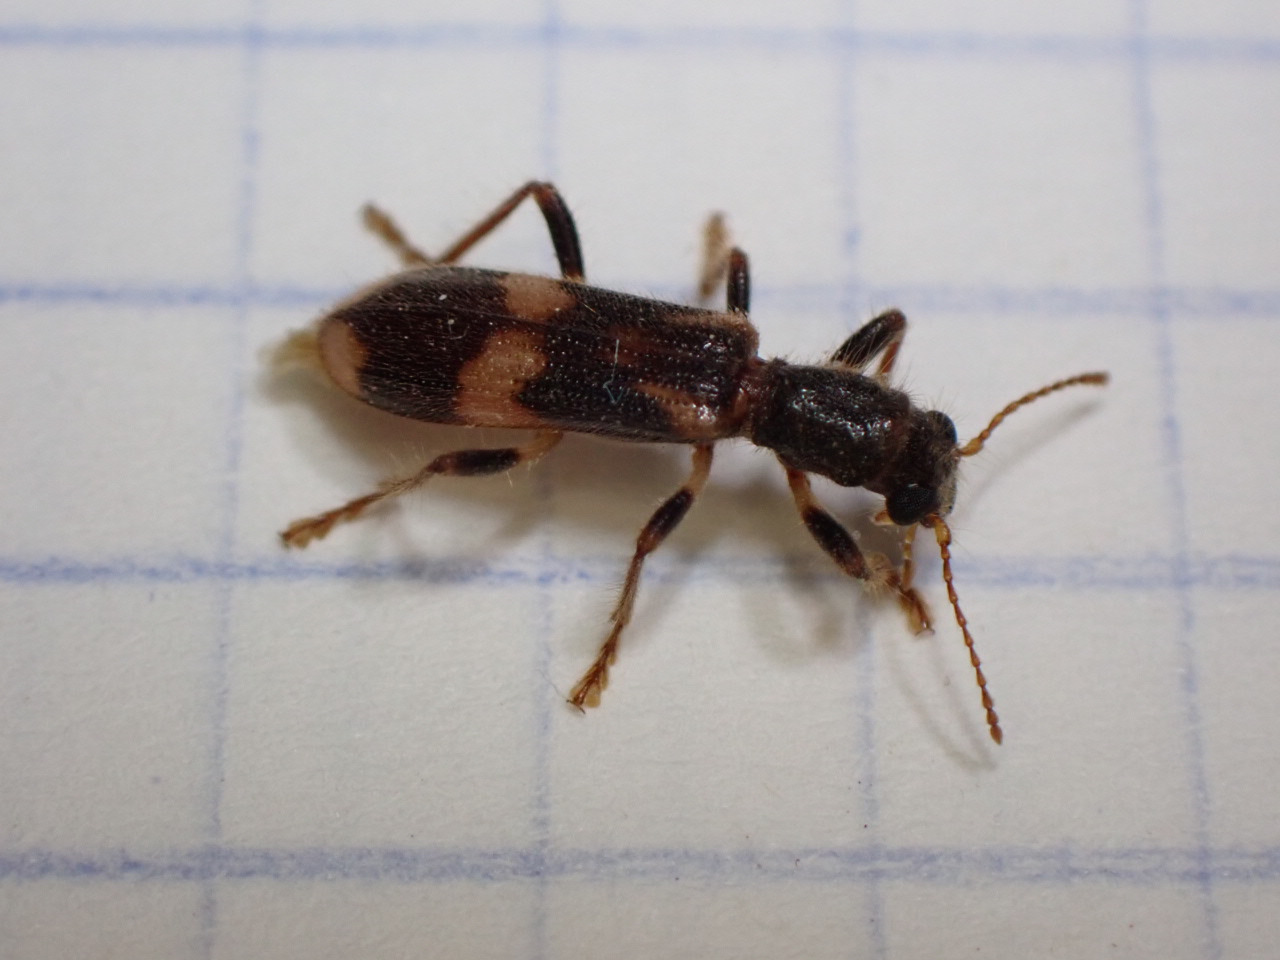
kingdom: Animalia
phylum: Arthropoda
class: Insecta
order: Coleoptera
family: Cleridae
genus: Opilo
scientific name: Opilo mollis
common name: Løvtræsmyrebille
